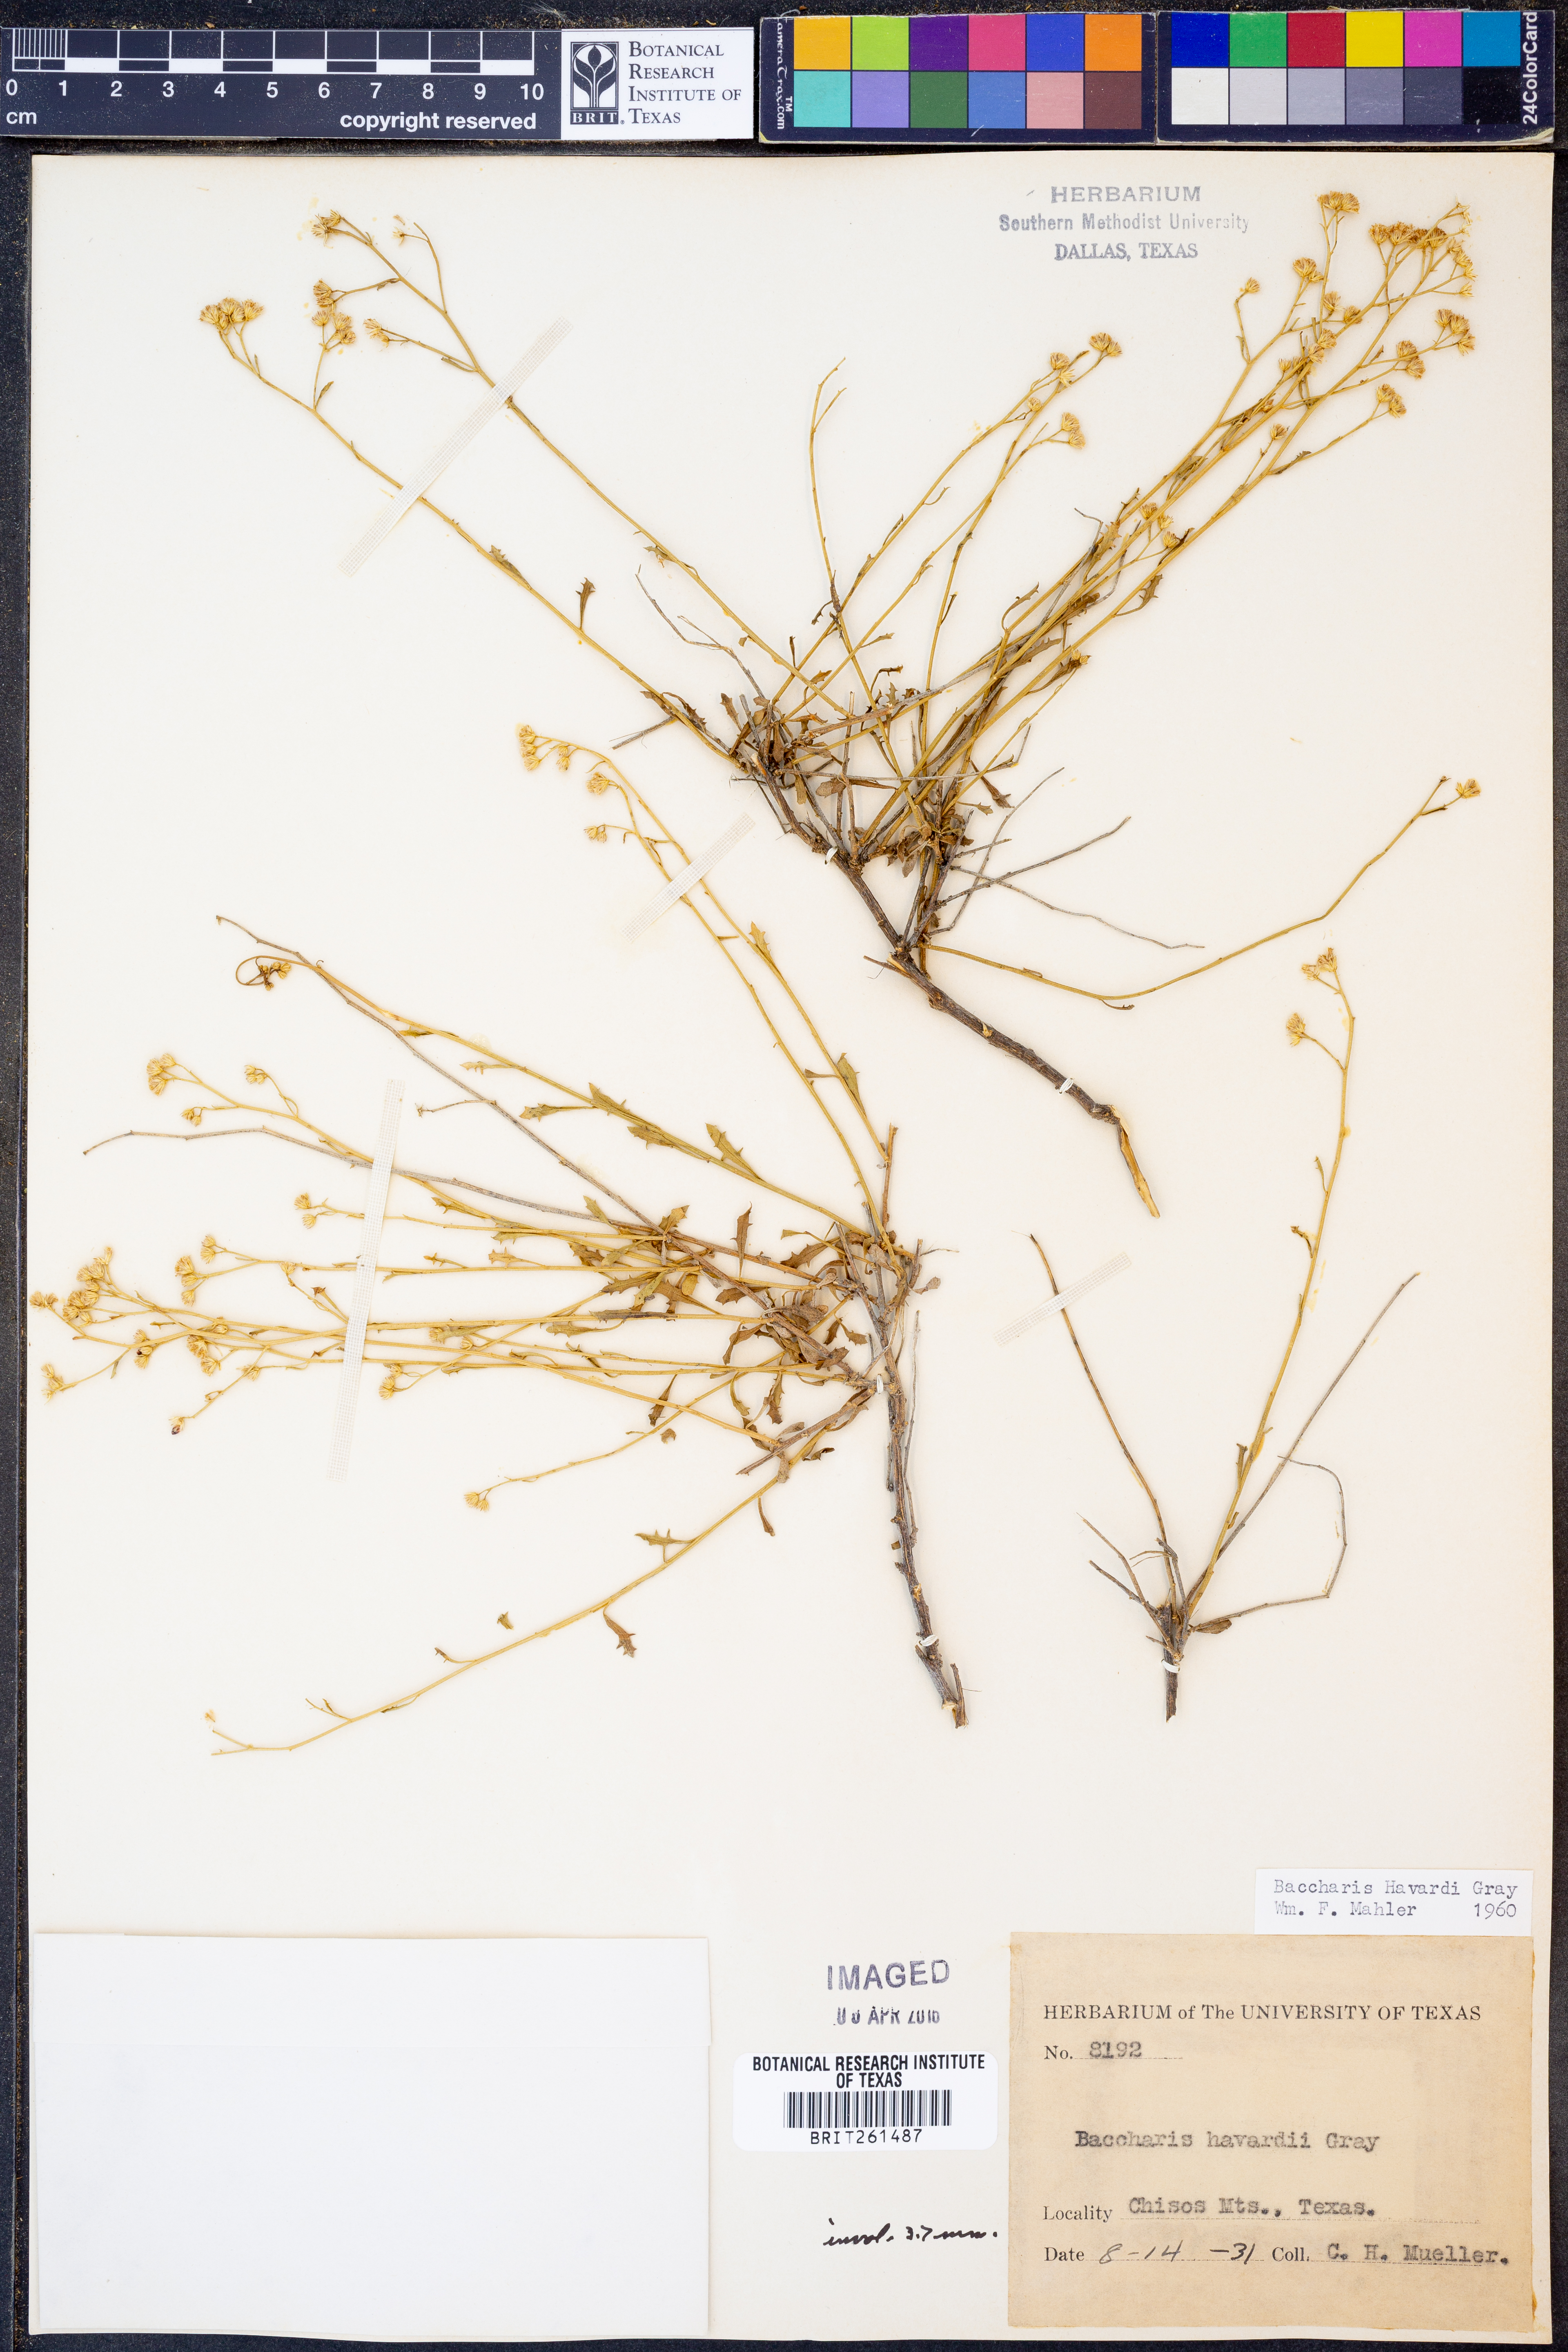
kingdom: Plantae
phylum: Tracheophyta
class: Magnoliopsida
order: Asterales
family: Asteraceae
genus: Baccharis
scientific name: Baccharis havardii
